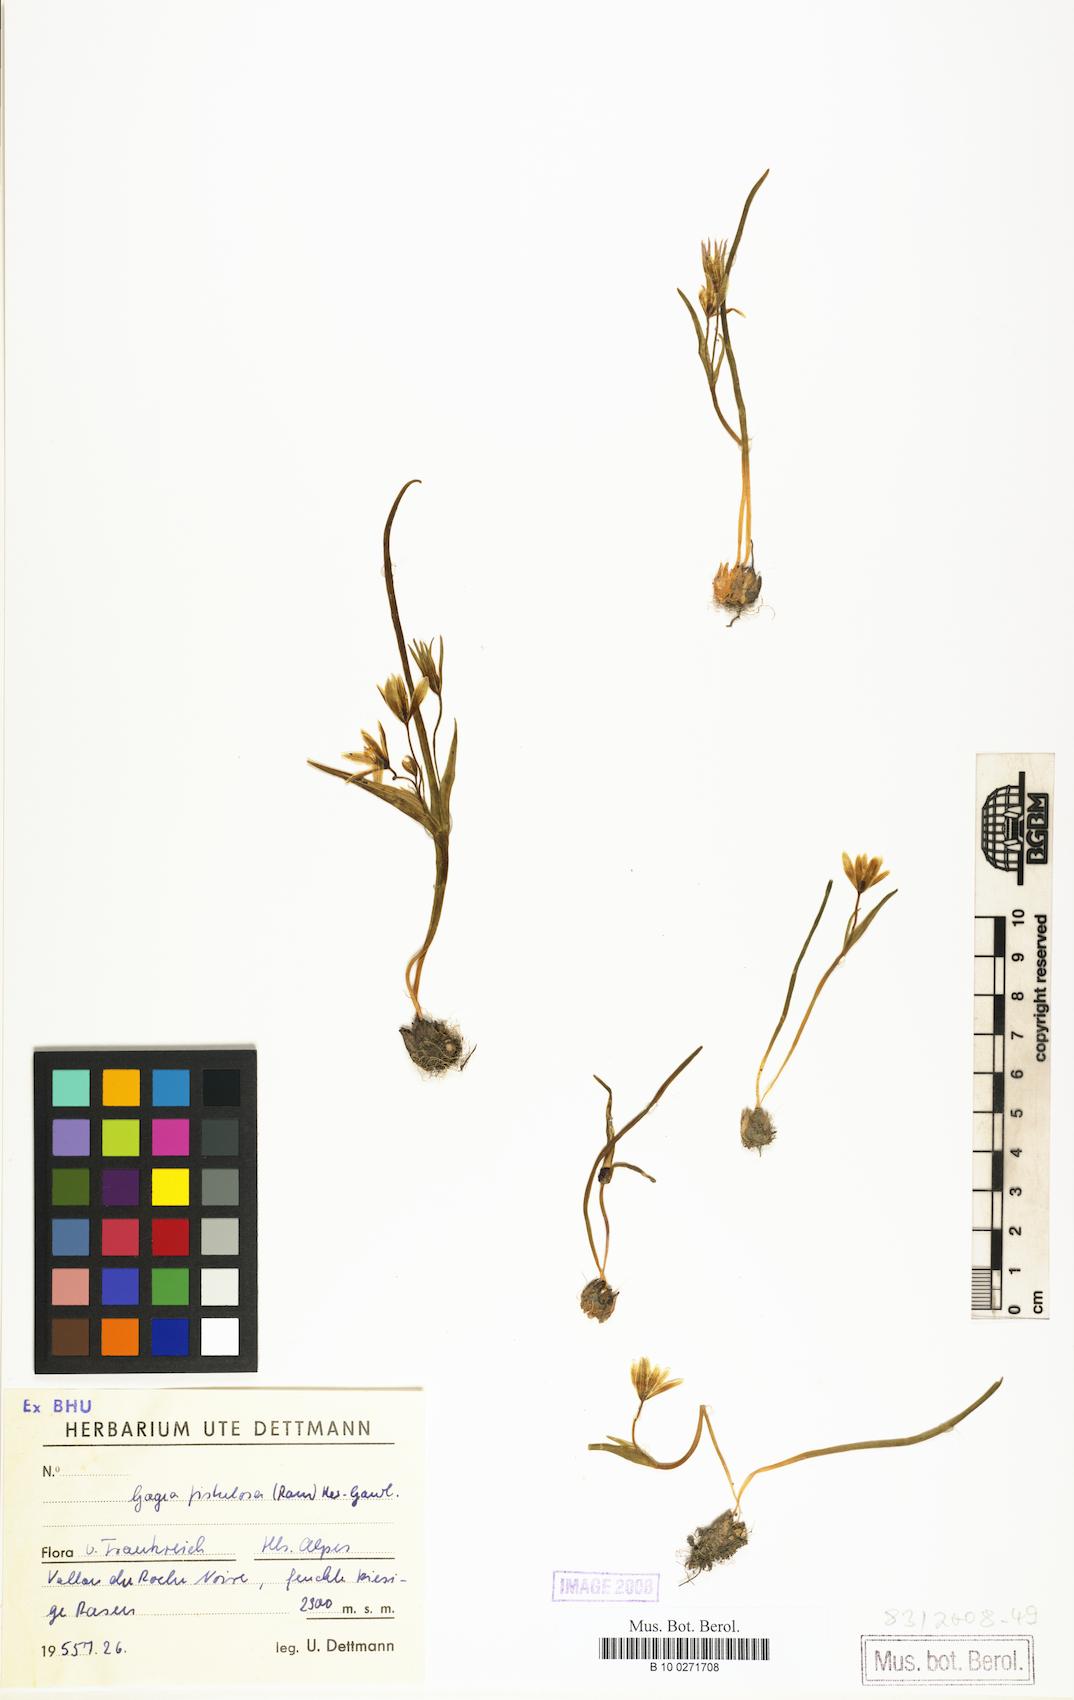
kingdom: Plantae
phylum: Tracheophyta
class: Liliopsida
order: Liliales
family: Liliaceae
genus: Gagea
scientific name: Gagea bohemica
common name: Early star-of-bethlehem
